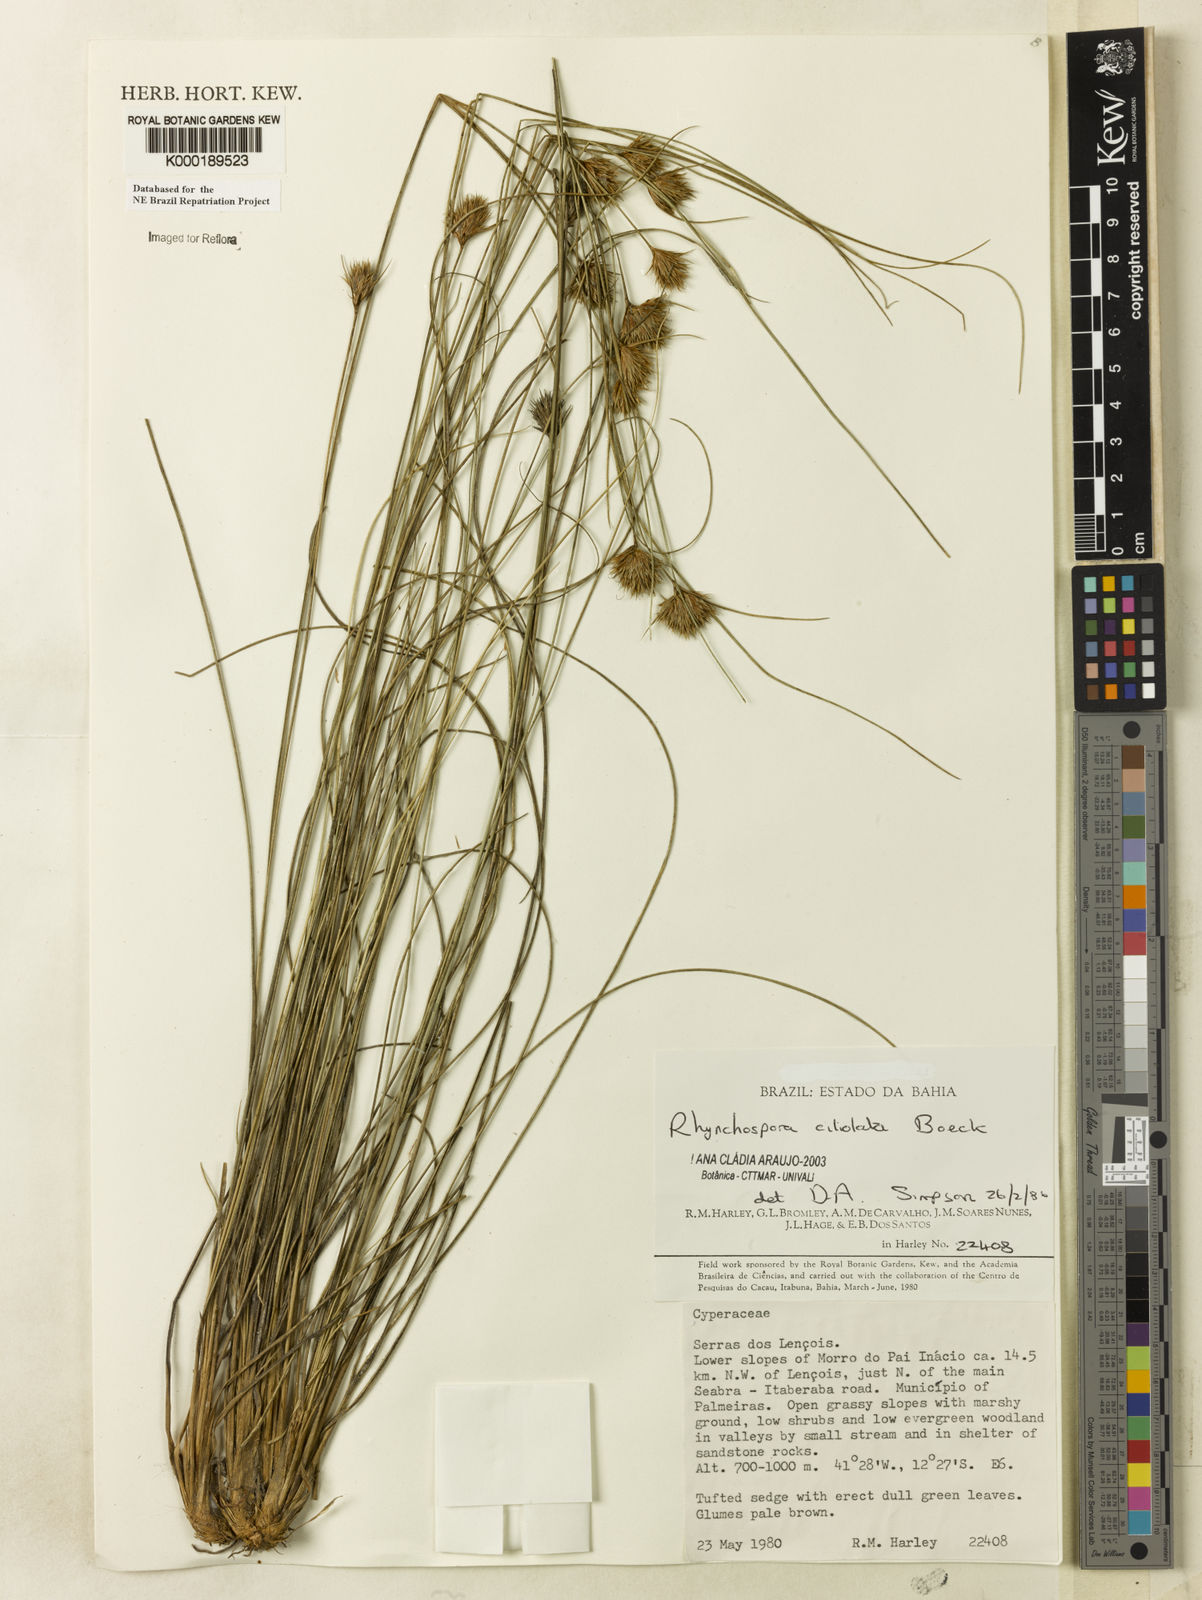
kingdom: Plantae
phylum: Tracheophyta
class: Liliopsida
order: Poales
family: Cyperaceae
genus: Rhynchospora
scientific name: Rhynchospora ciliolata
